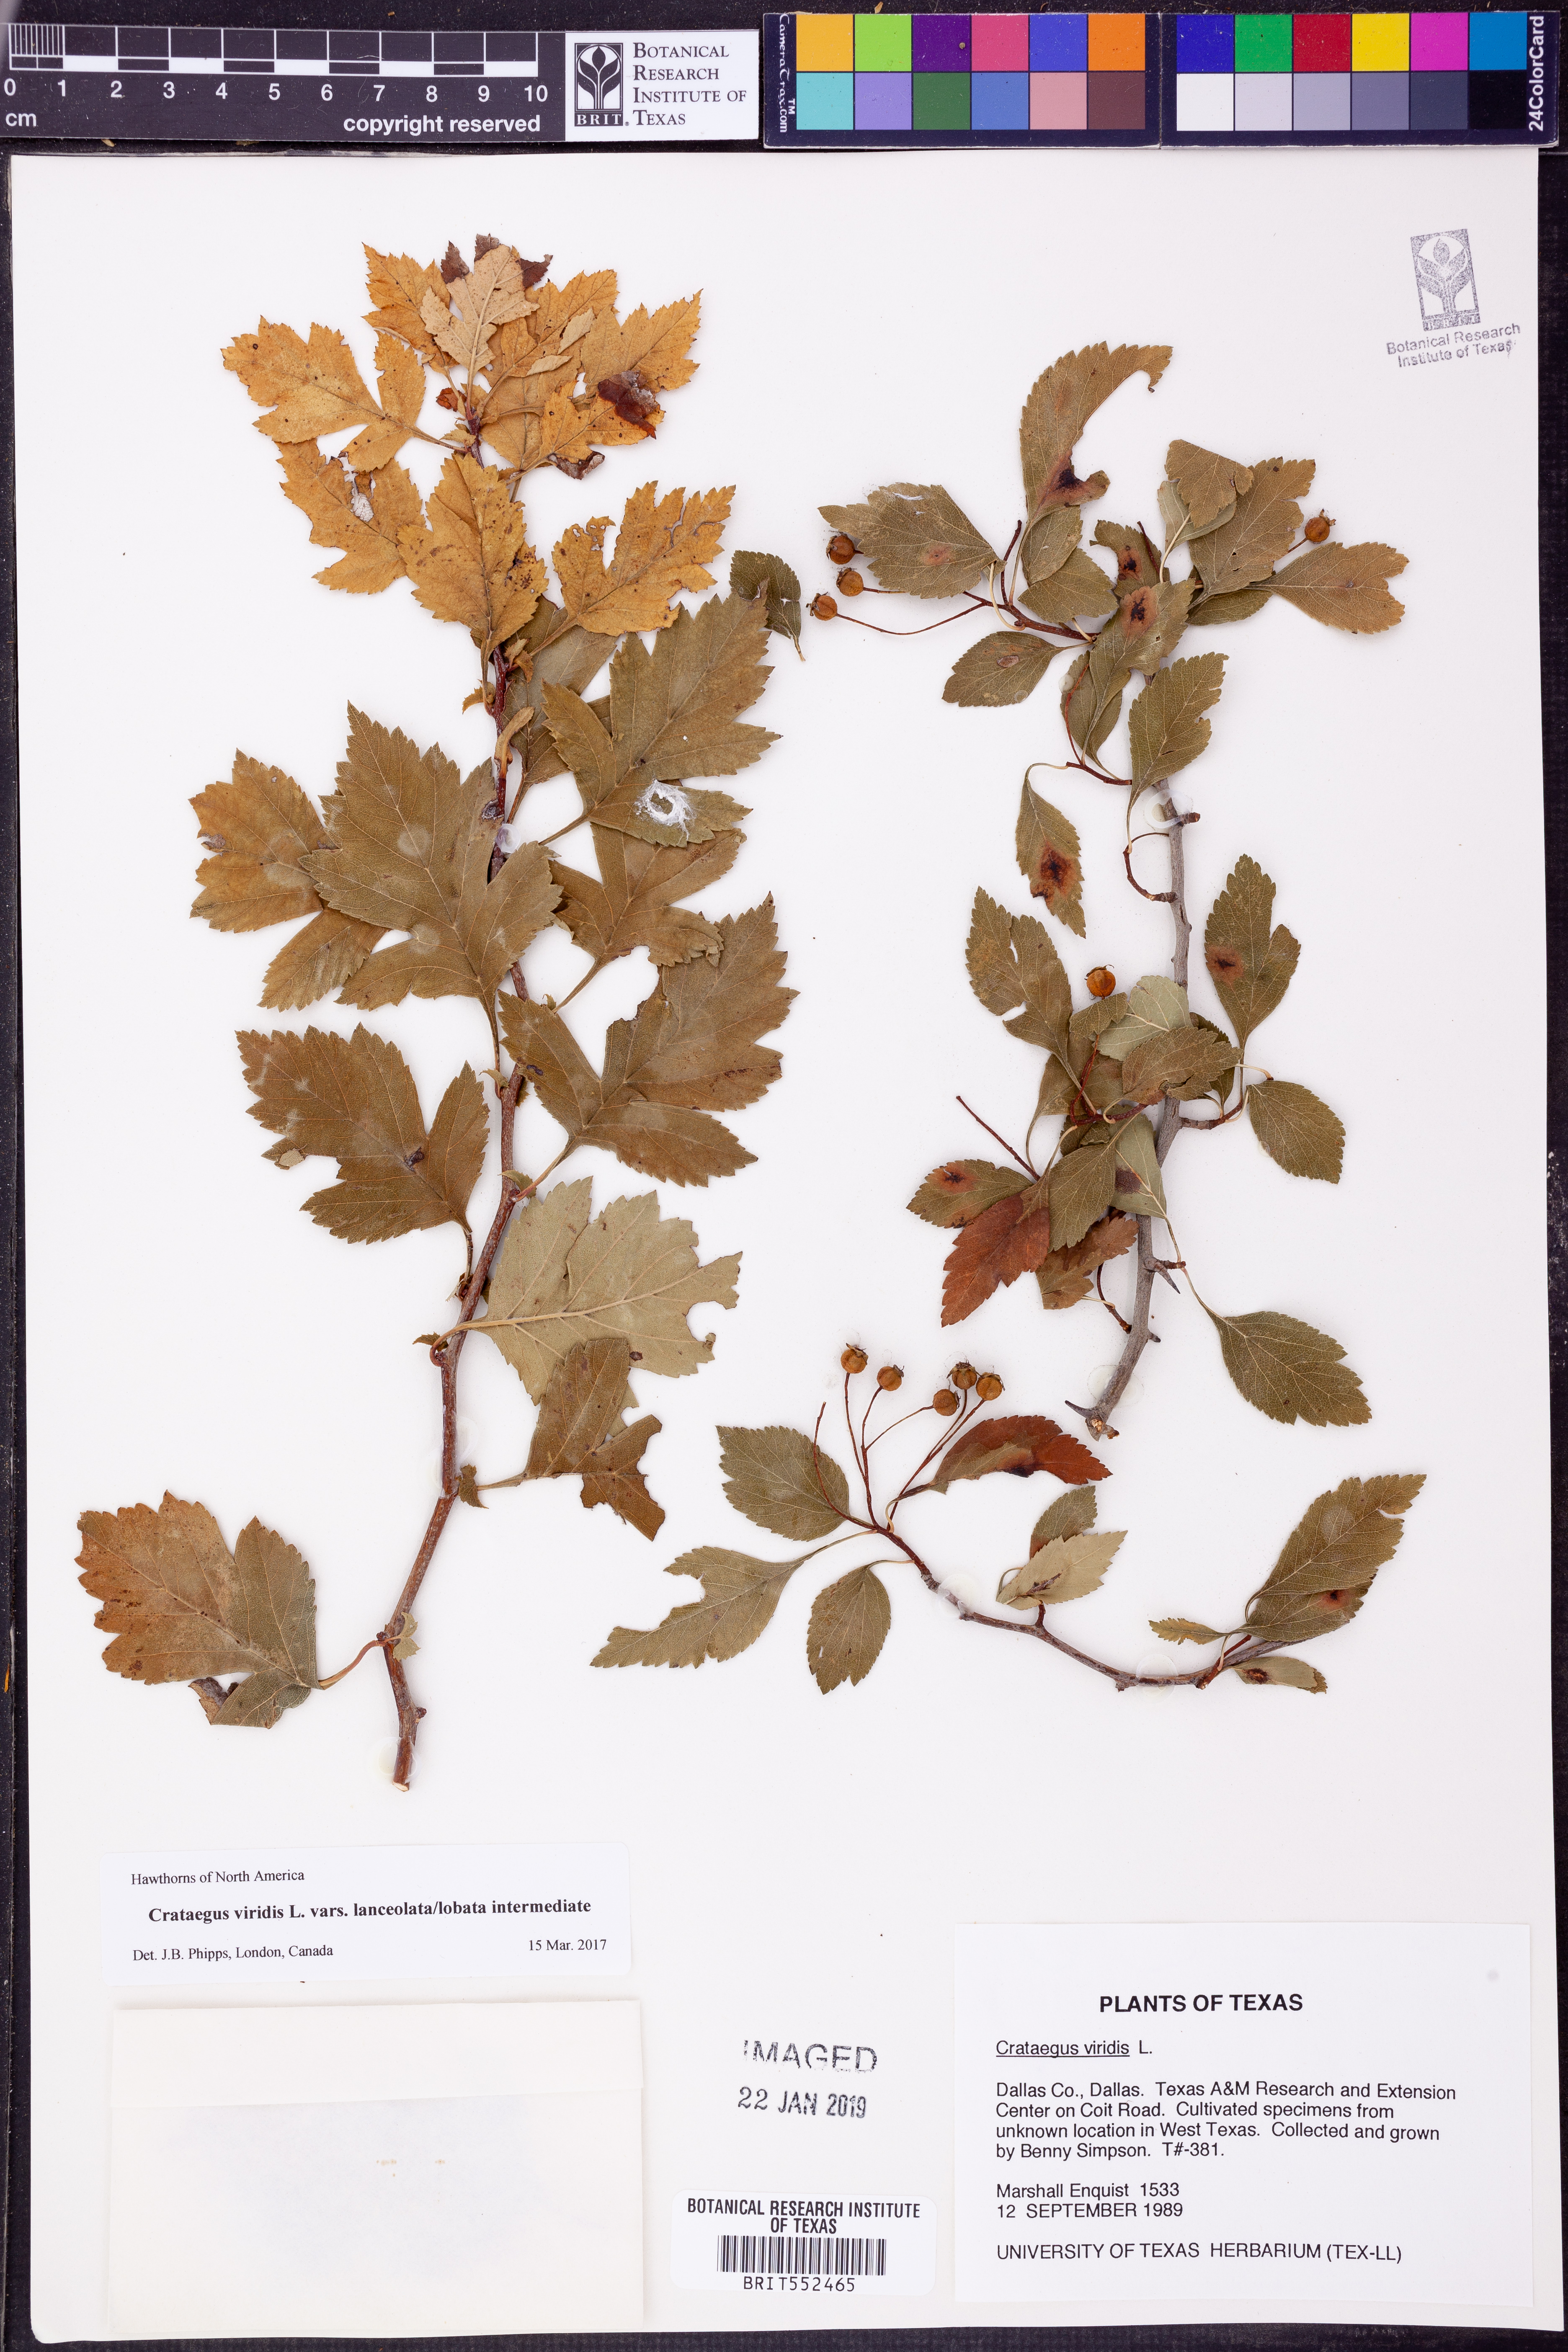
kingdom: Plantae
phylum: Tracheophyta
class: Magnoliopsida
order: Rosales
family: Rosaceae
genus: Crataegus
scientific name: Crataegus viridis
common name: Southernthorn
